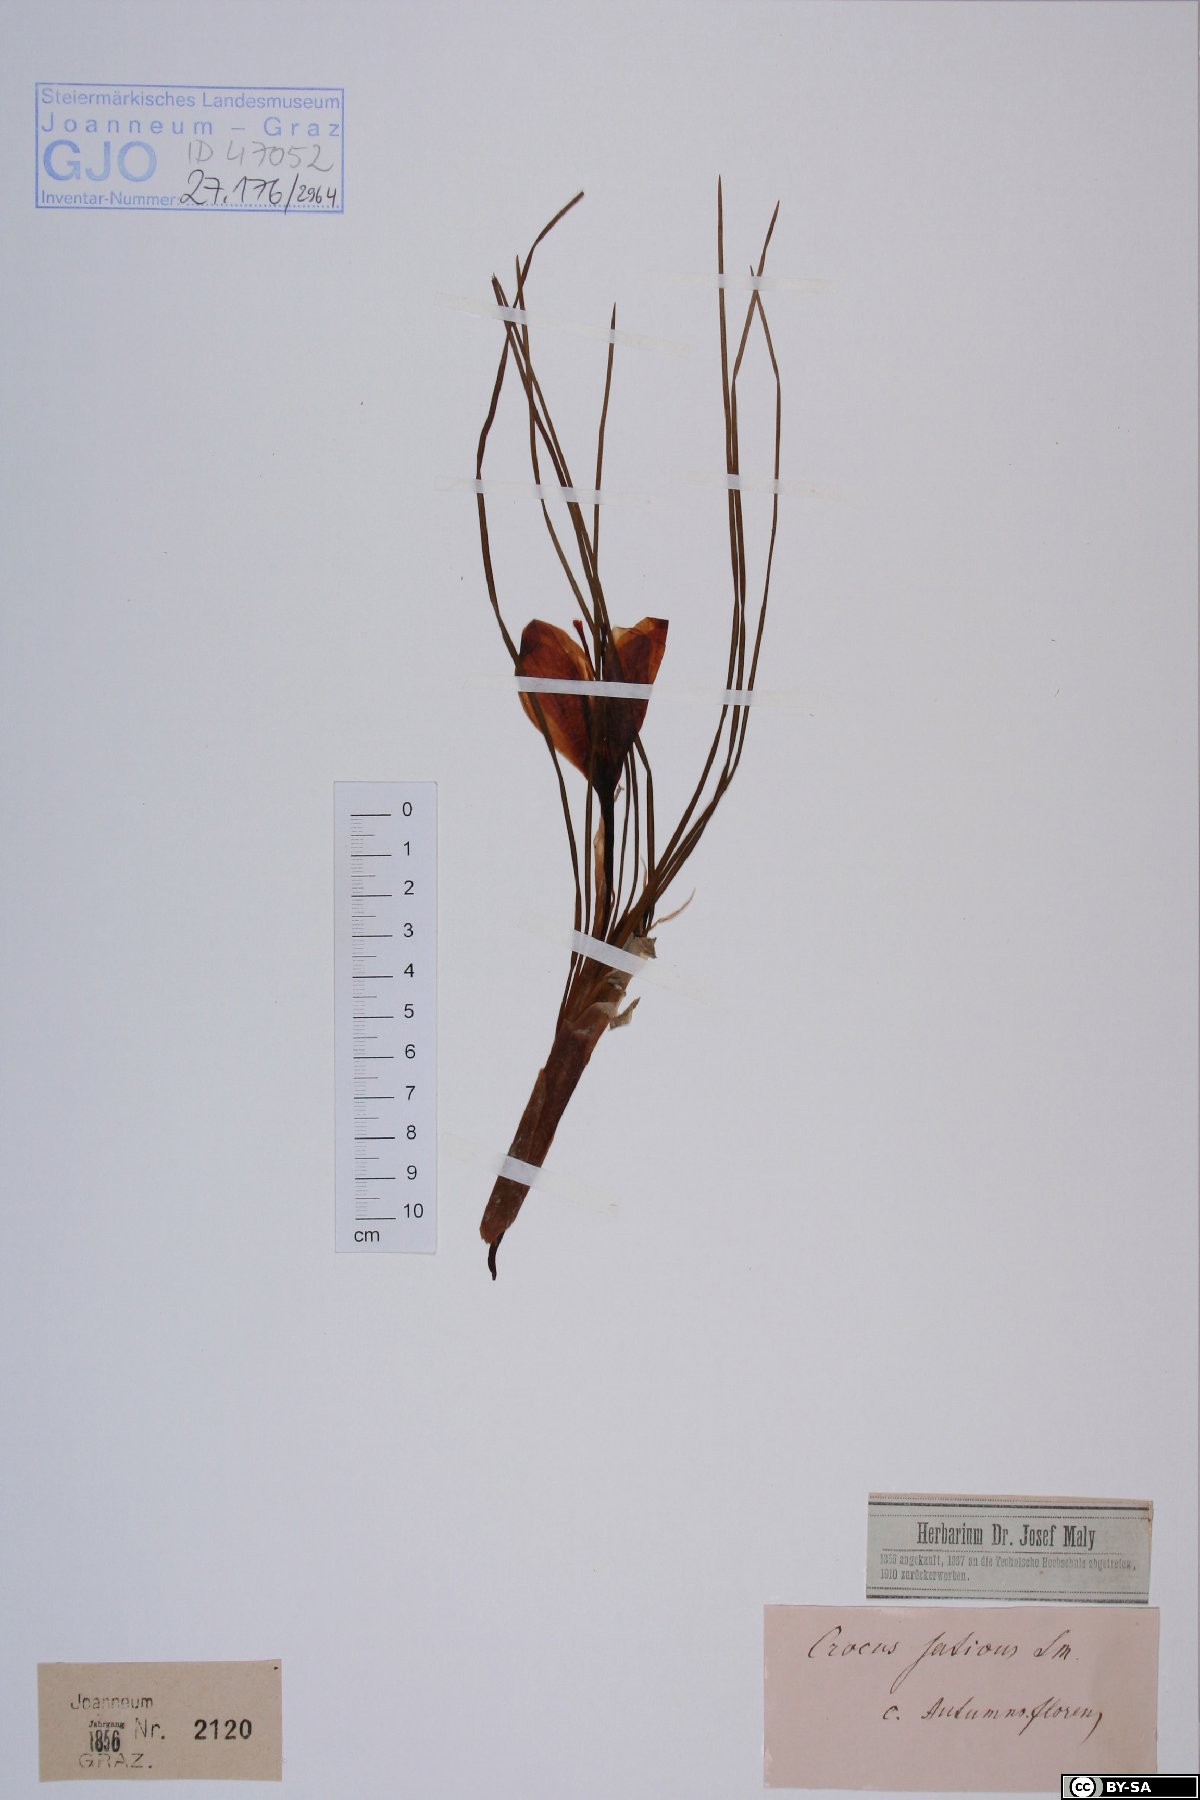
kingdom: Plantae
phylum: Tracheophyta
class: Liliopsida
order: Asparagales
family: Iridaceae
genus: Crocus
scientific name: Crocus sativus
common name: Saffron crocus
